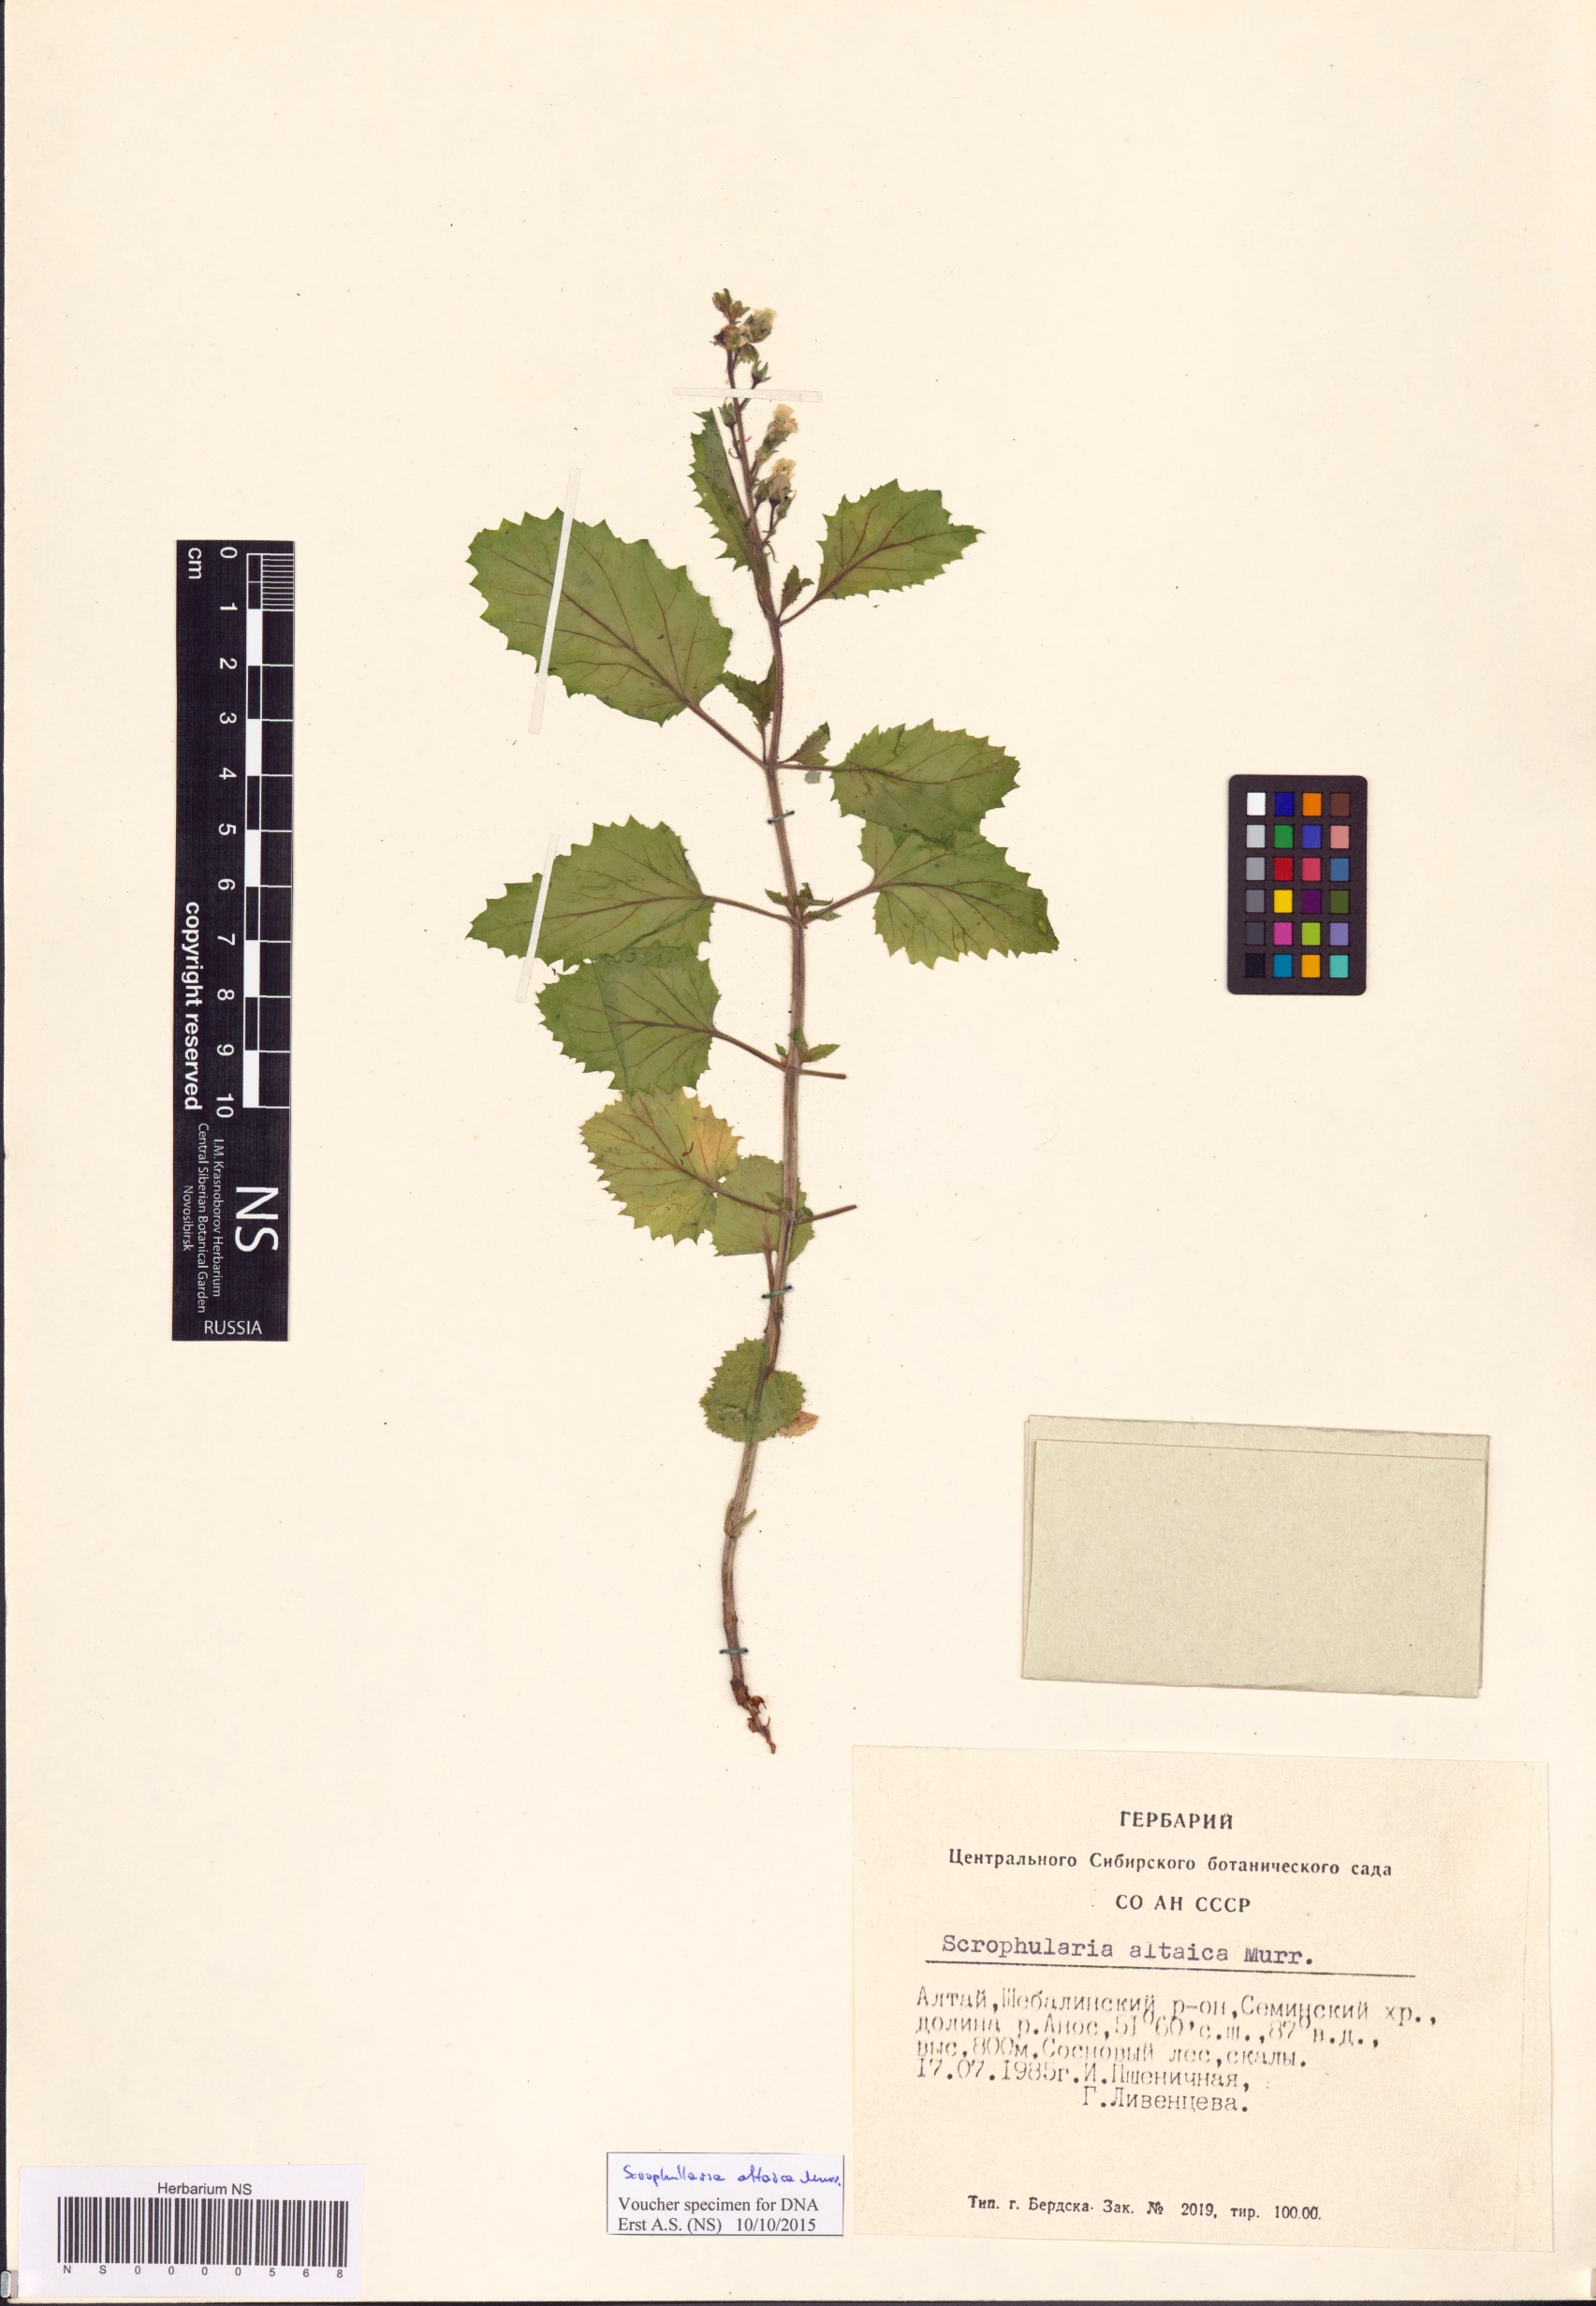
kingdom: Plantae
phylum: Tracheophyta
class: Magnoliopsida
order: Lamiales
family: Scrophulariaceae
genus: Scrophularia
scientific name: Scrophularia altaica
